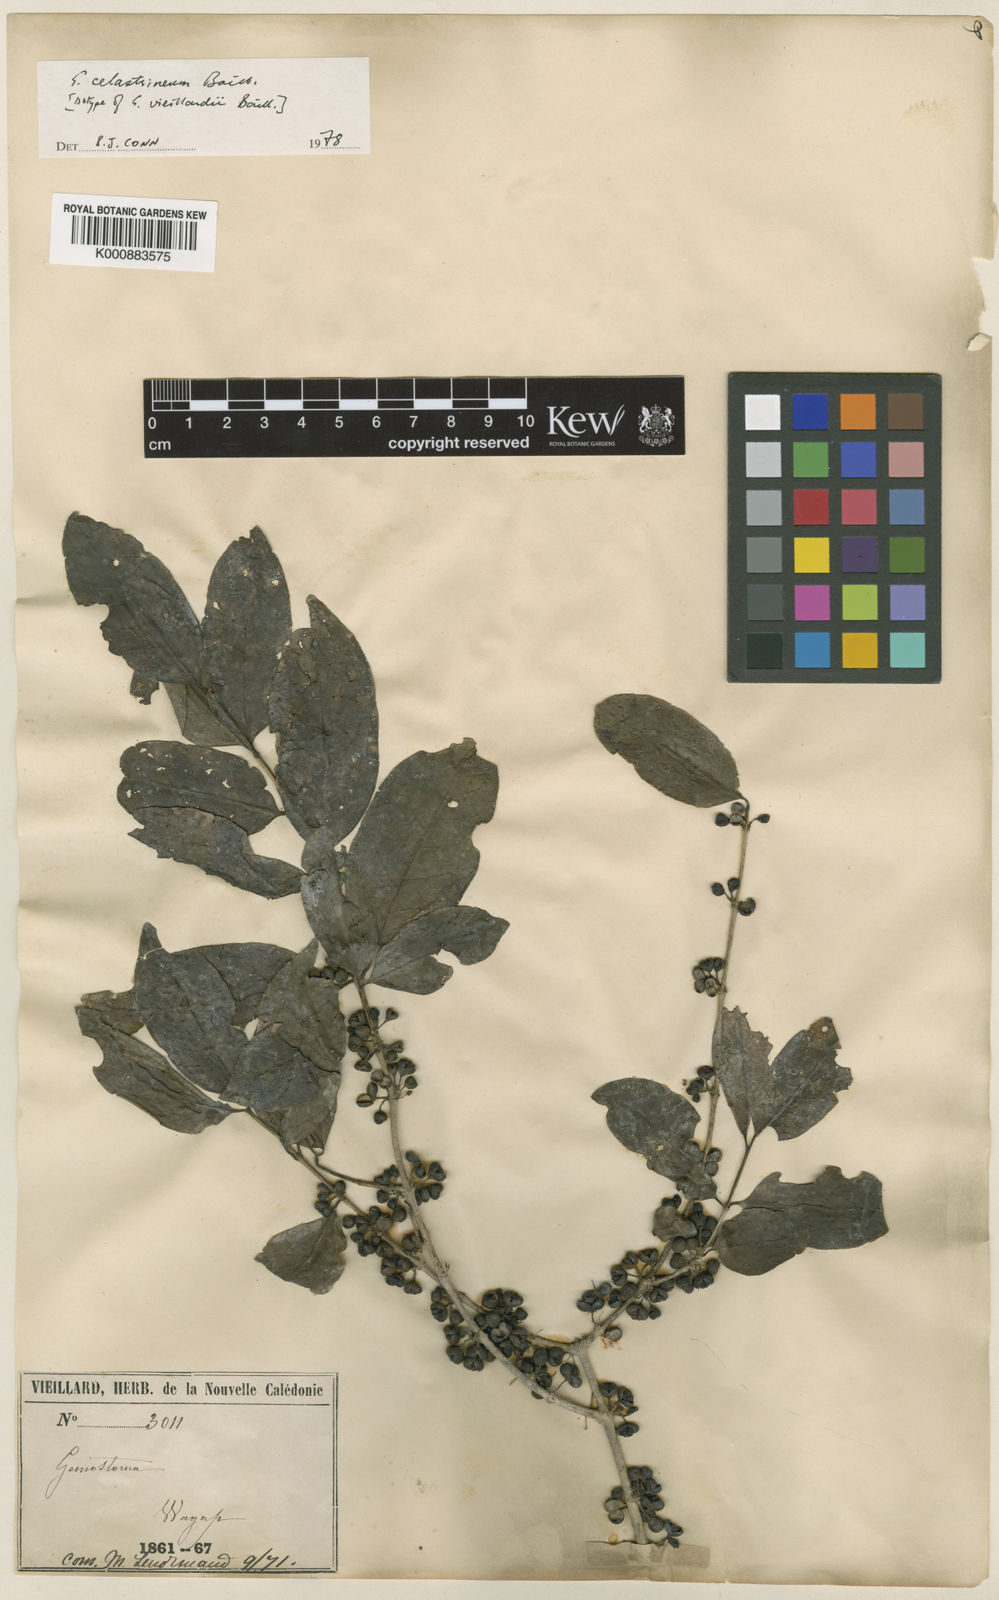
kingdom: Plantae
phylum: Tracheophyta
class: Magnoliopsida
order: Gentianales
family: Loganiaceae
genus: Geniostoma
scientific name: Geniostoma celastrineum
